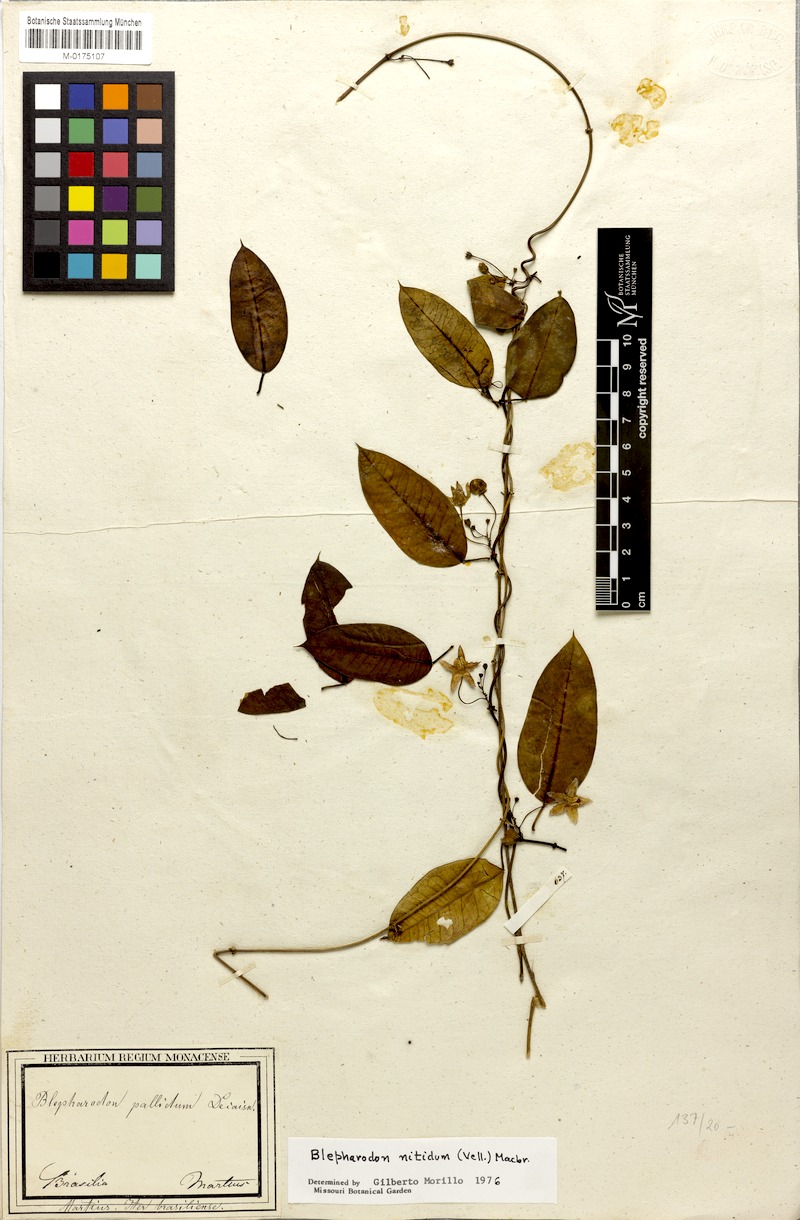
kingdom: Plantae
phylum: Tracheophyta
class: Magnoliopsida
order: Gentianales
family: Apocynaceae
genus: Blepharodon
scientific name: Blepharodon pictum
